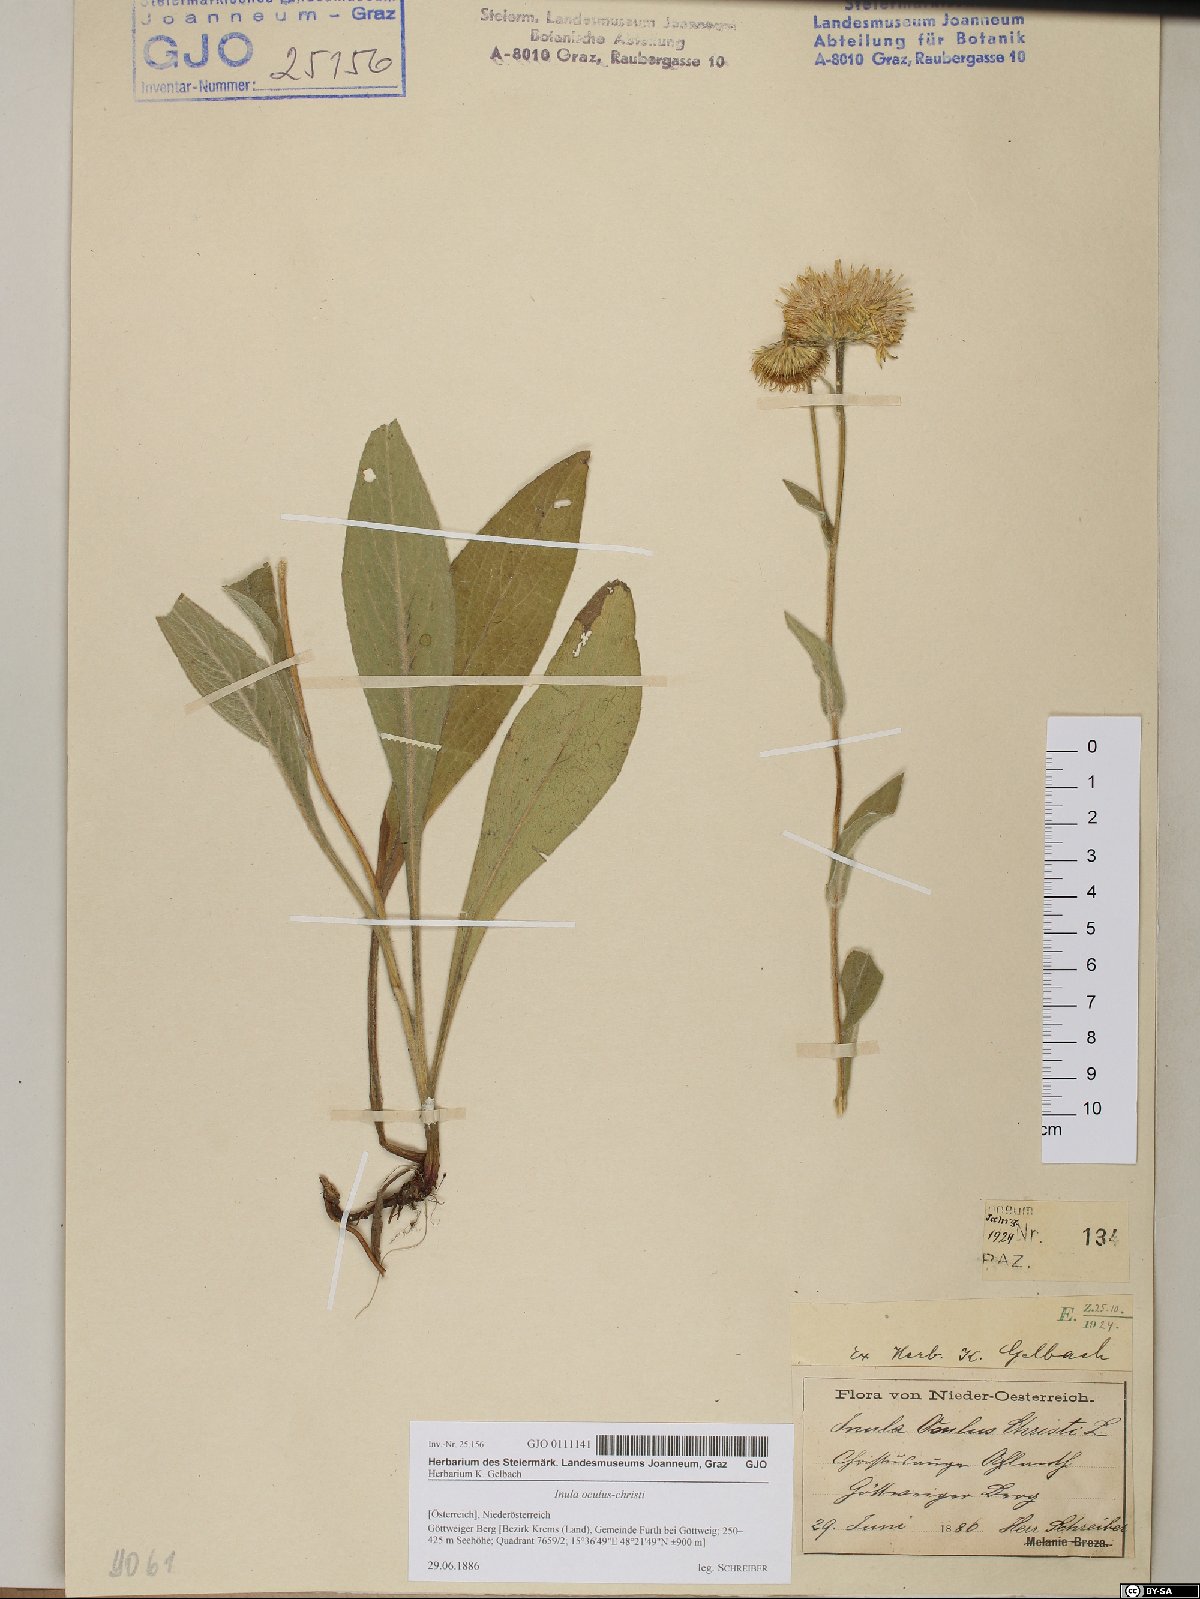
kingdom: Plantae
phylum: Tracheophyta
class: Magnoliopsida
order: Asterales
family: Asteraceae
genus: Pentanema
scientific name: Pentanema oculus-christi
